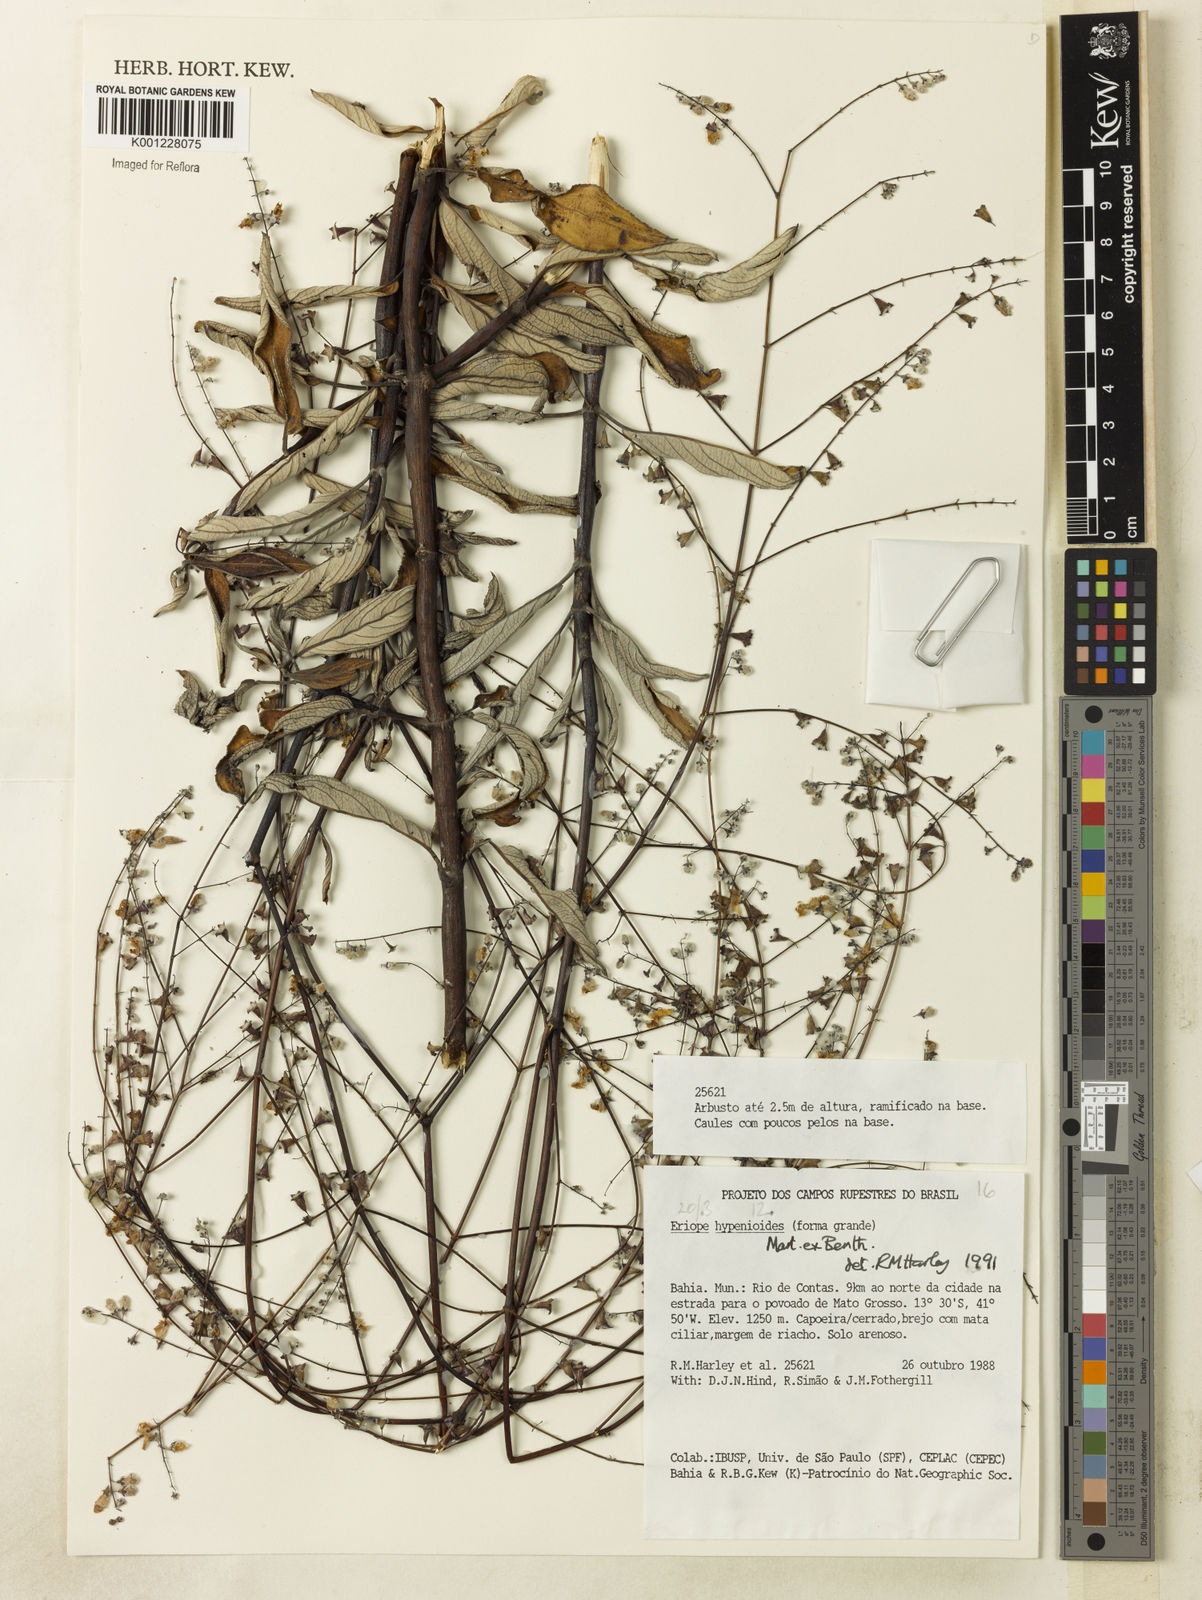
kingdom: Plantae
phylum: Tracheophyta
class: Magnoliopsida
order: Lamiales
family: Lamiaceae
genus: Eriope
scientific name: Eriope hypenioides
